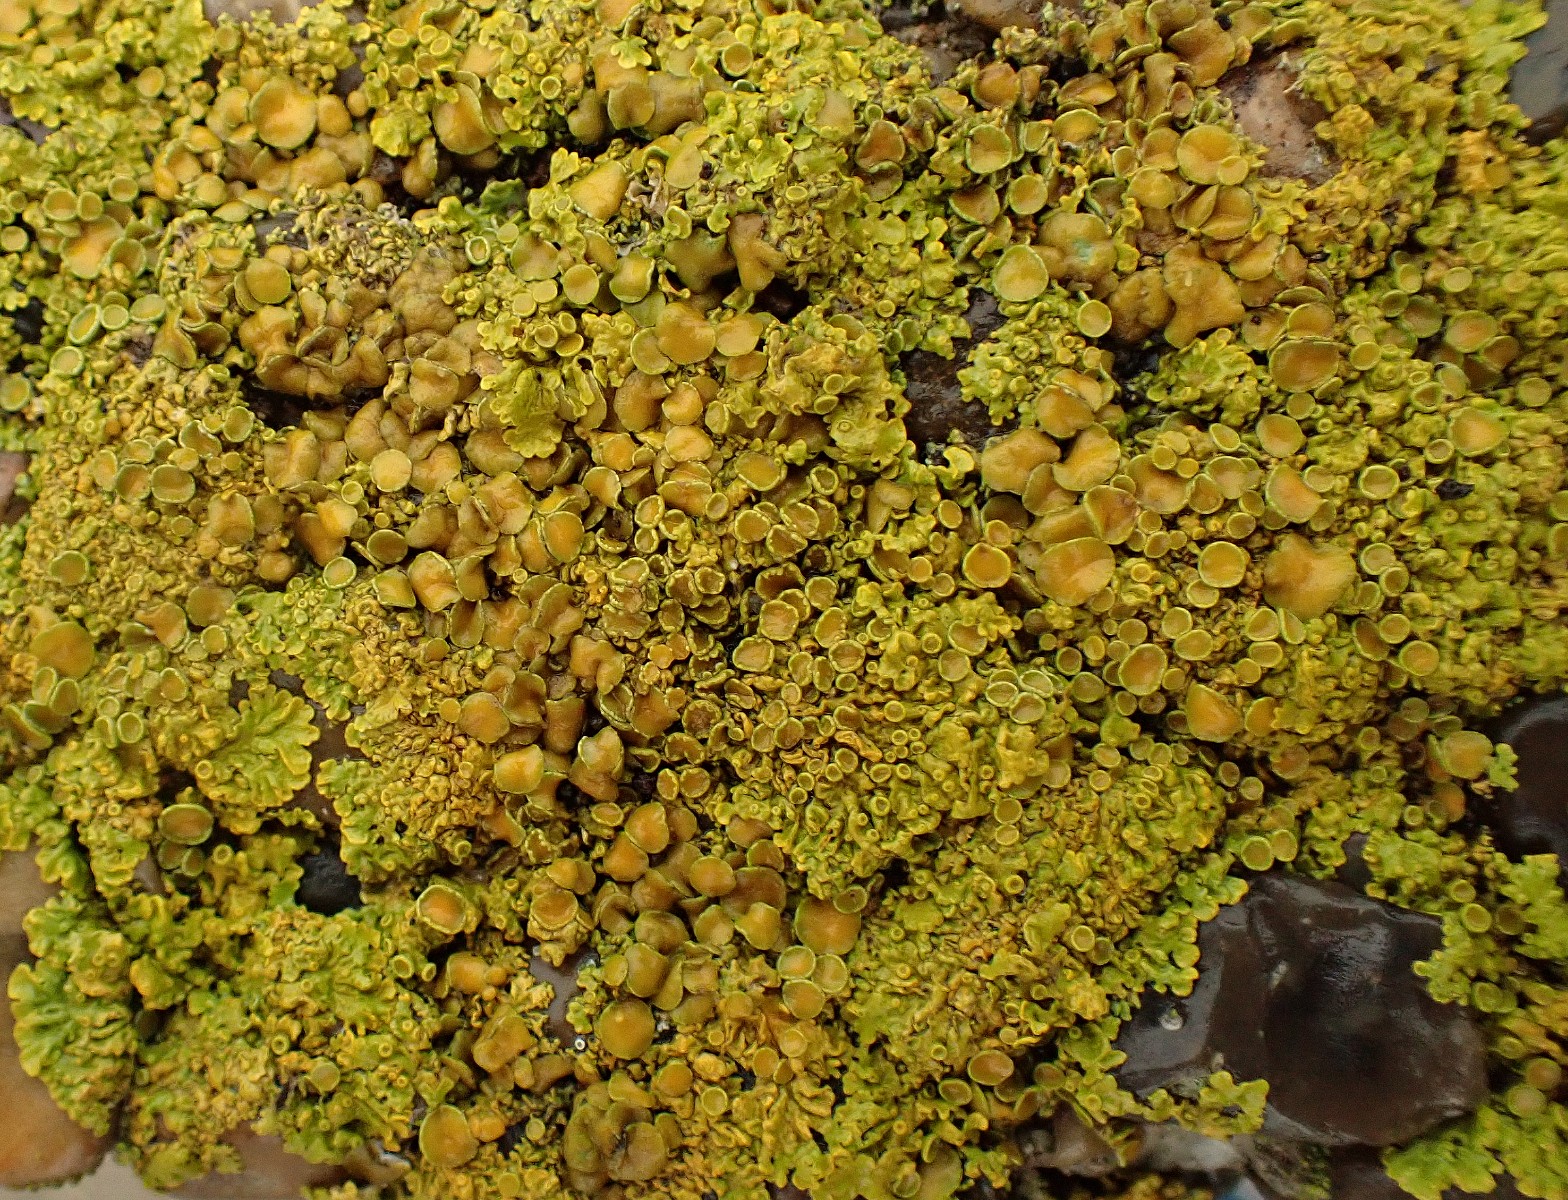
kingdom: Fungi
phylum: Ascomycota
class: Lecanoromycetes
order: Teloschistales
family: Teloschistaceae
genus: Xanthoria
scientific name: Xanthoria parietina
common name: almindelig væggelav
